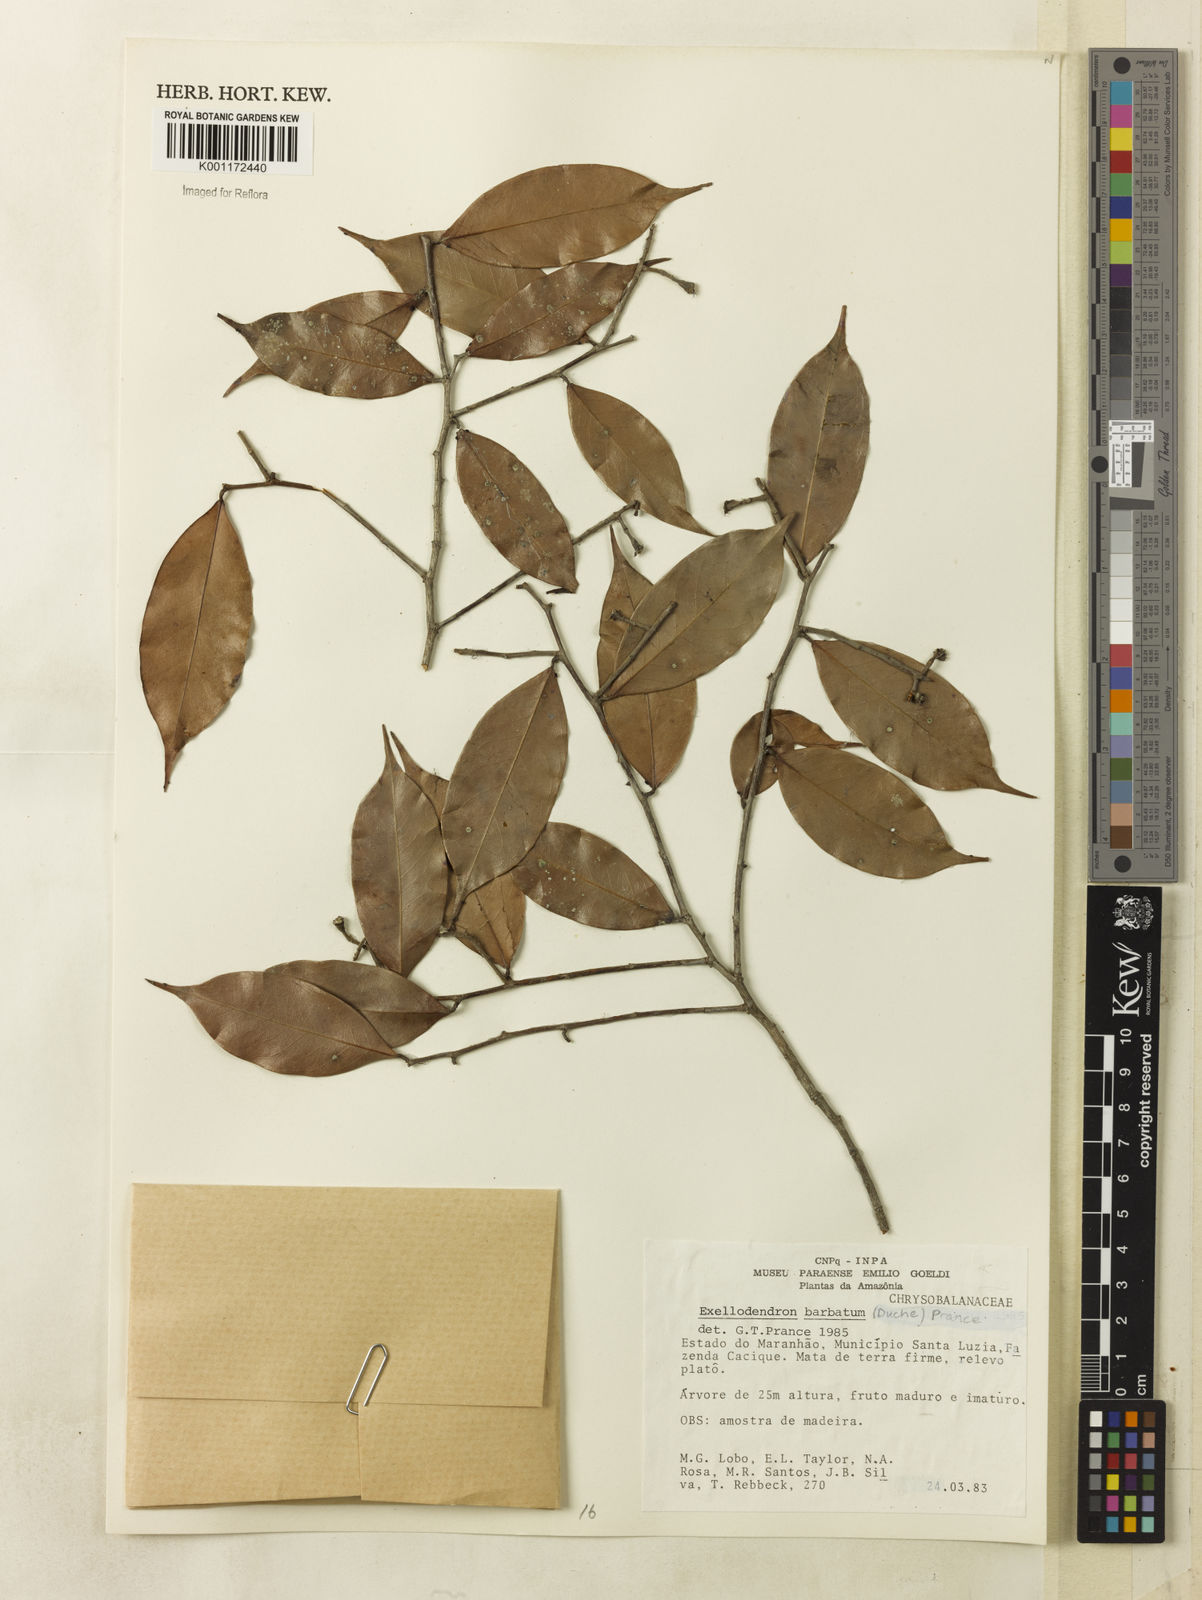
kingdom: Plantae
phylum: Tracheophyta
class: Magnoliopsida
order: Malpighiales
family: Chrysobalanaceae
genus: Atuna
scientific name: Atuna
